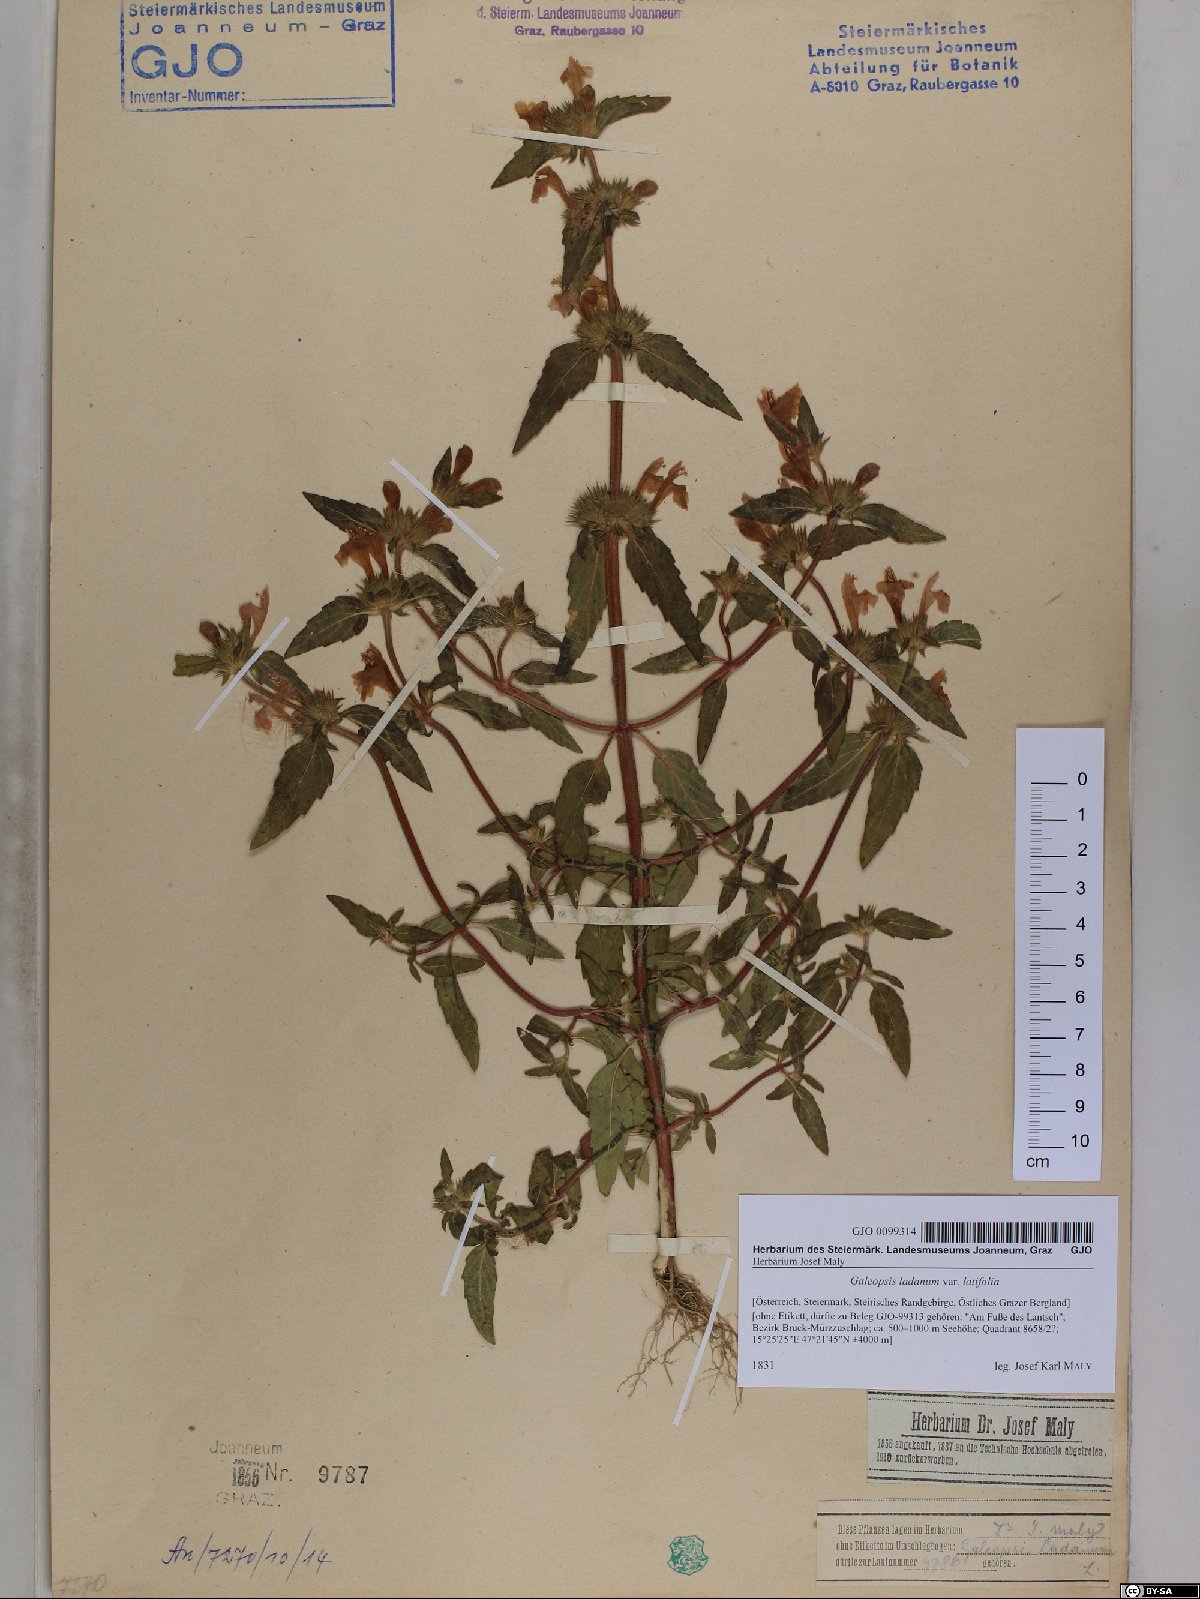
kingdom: Plantae
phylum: Tracheophyta
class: Magnoliopsida
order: Lamiales
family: Lamiaceae
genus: Galeopsis
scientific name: Galeopsis ladanum
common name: Broad-leaved hemp-nettle
